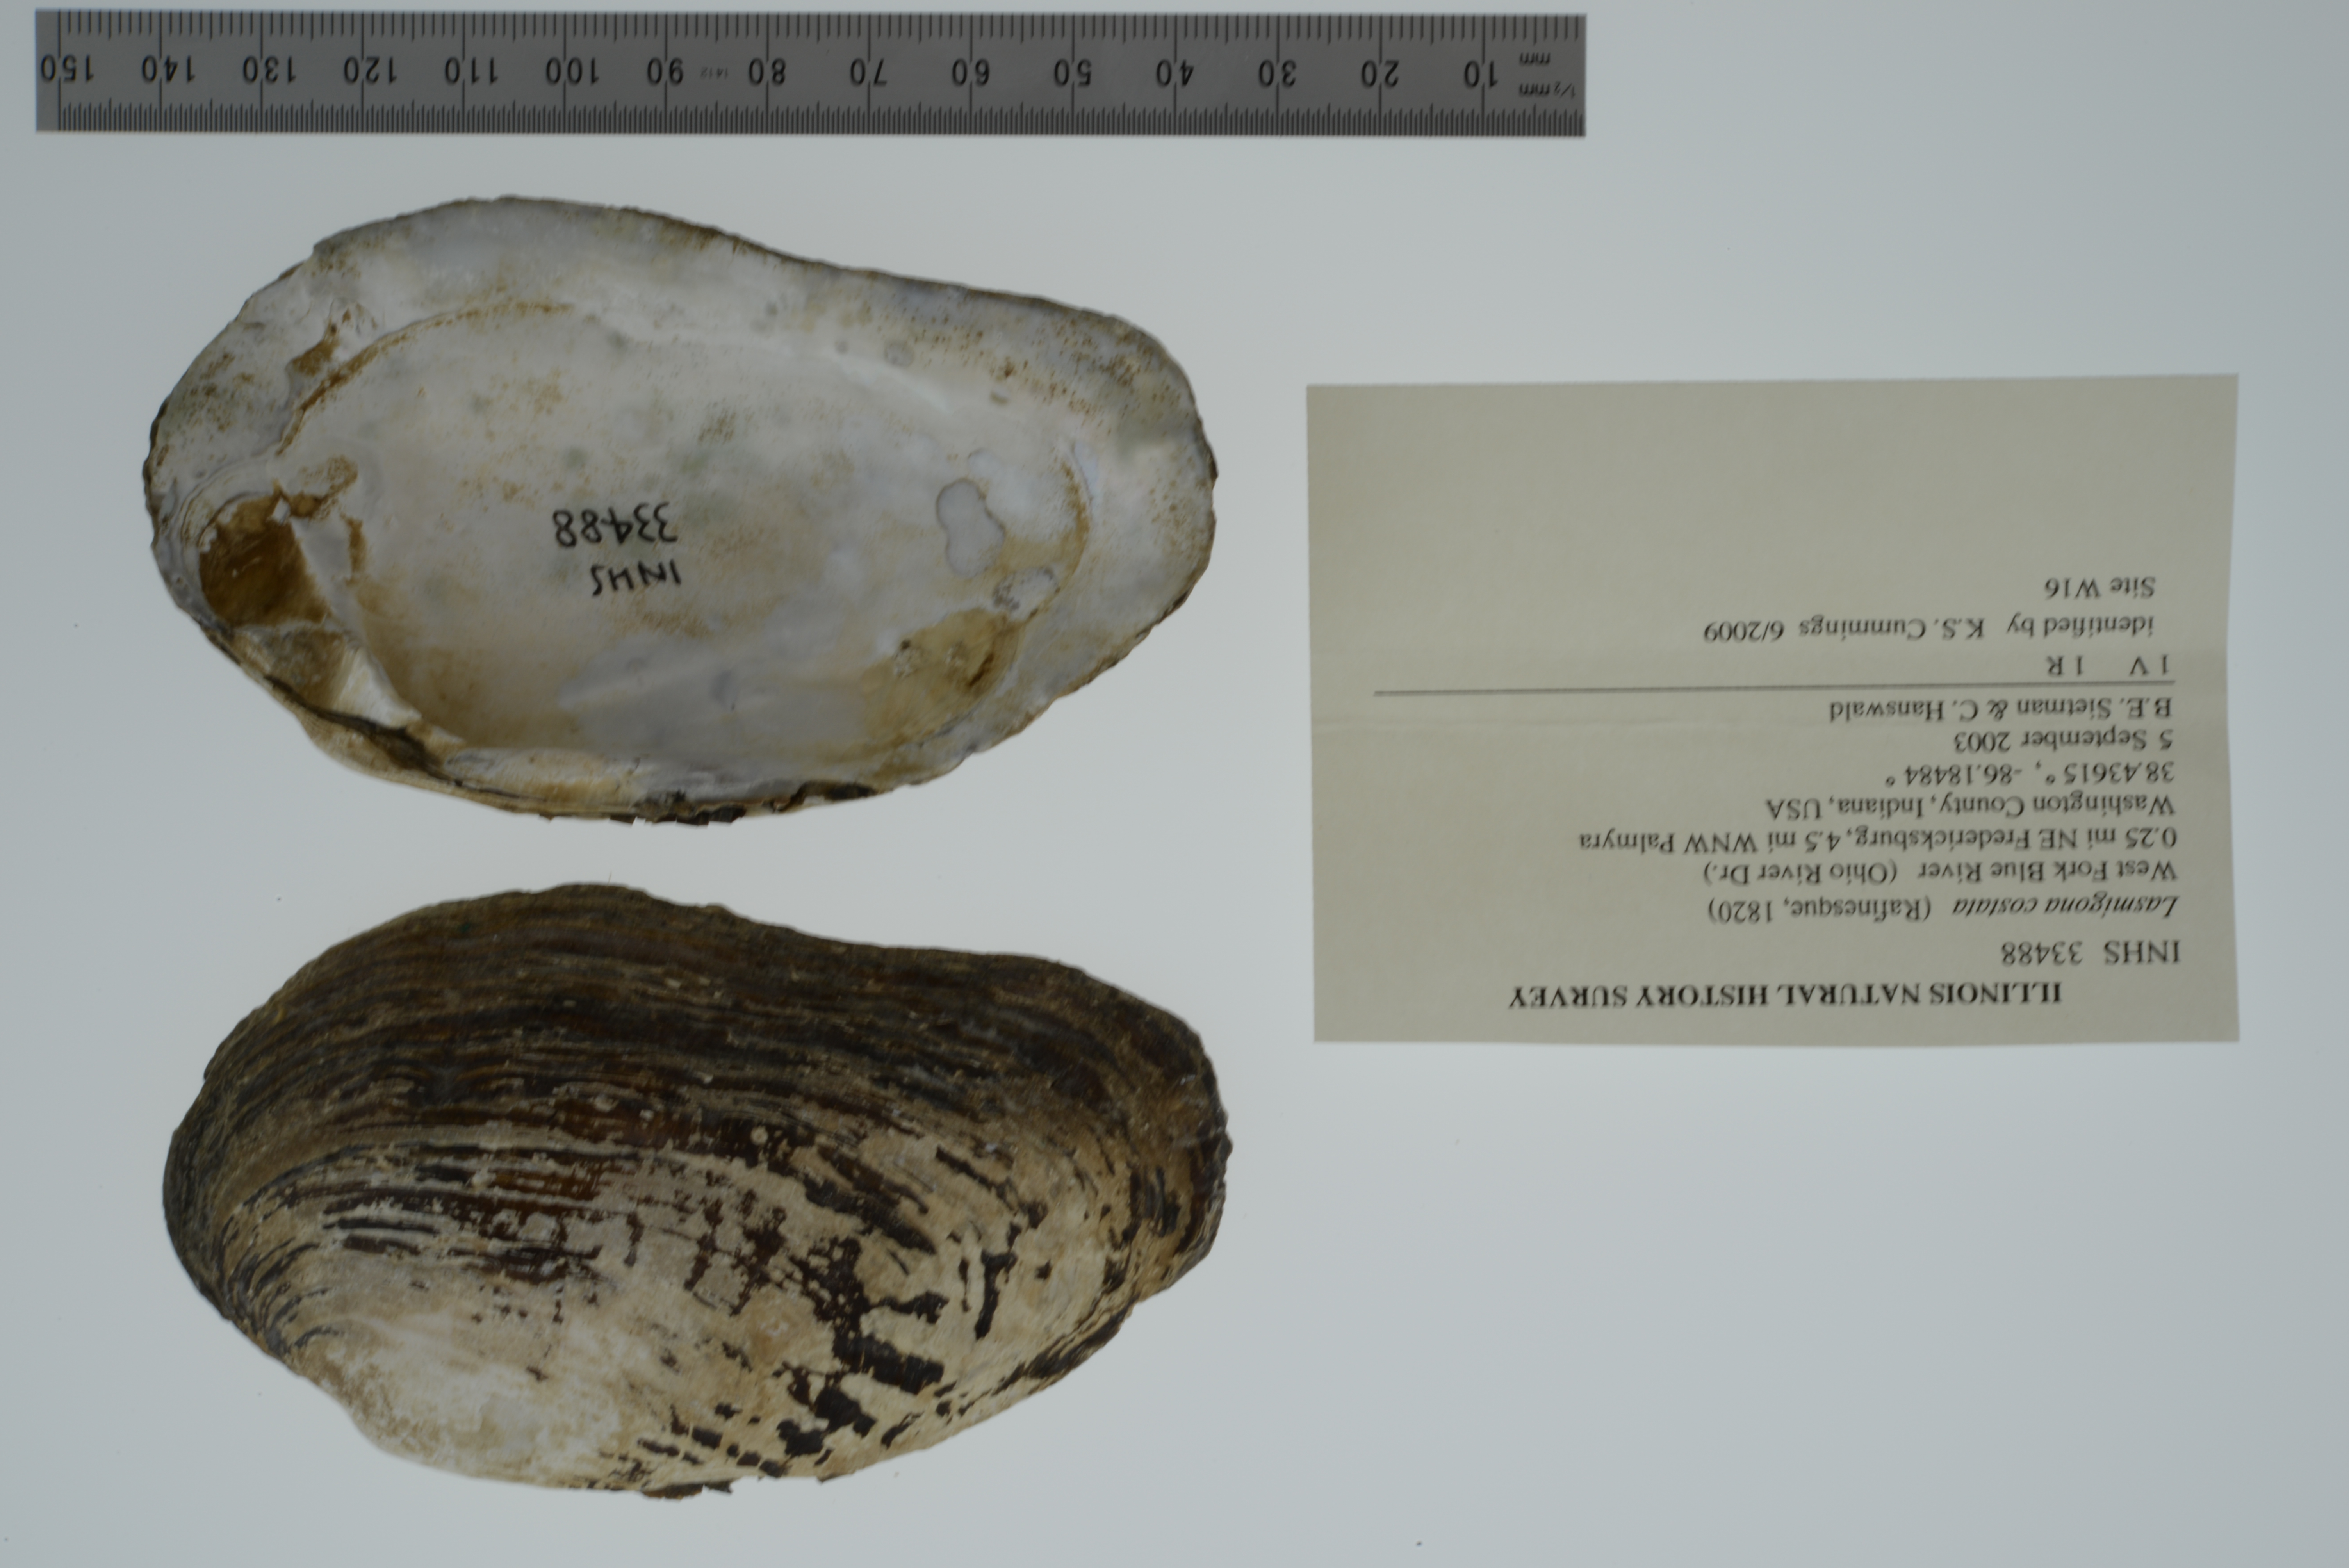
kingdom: Animalia
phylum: Mollusca
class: Bivalvia
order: Unionida
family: Unionidae
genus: Lasmigona
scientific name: Lasmigona costata
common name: Flutedshell
